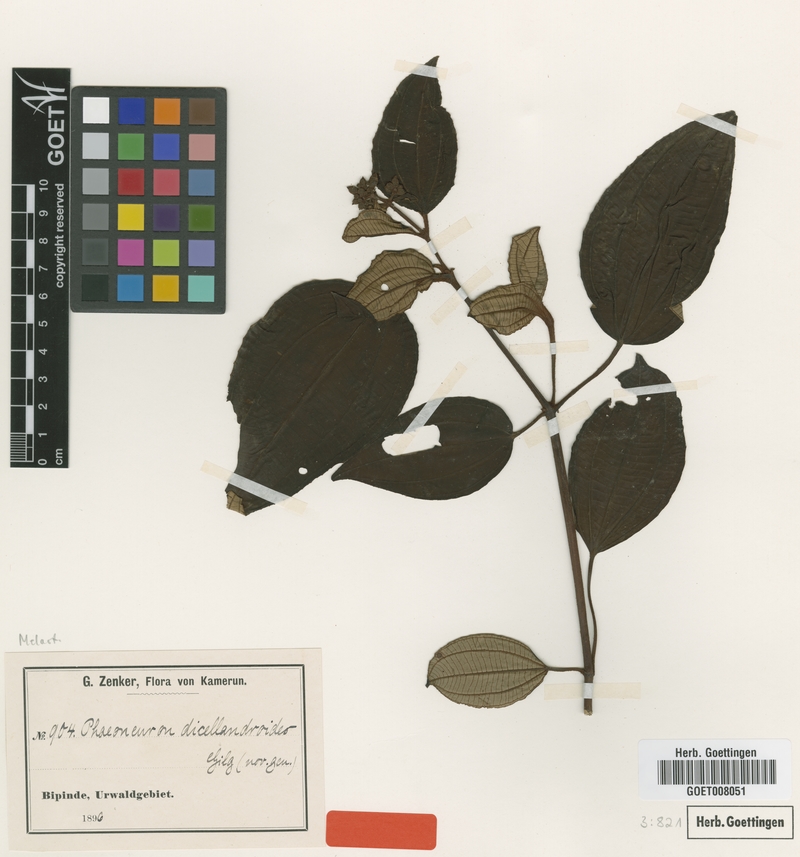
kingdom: Plantae
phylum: Tracheophyta
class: Magnoliopsida
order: Myrtales
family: Melastomataceae
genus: Ochthocharis
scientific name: Ochthocharis dicellandroides
